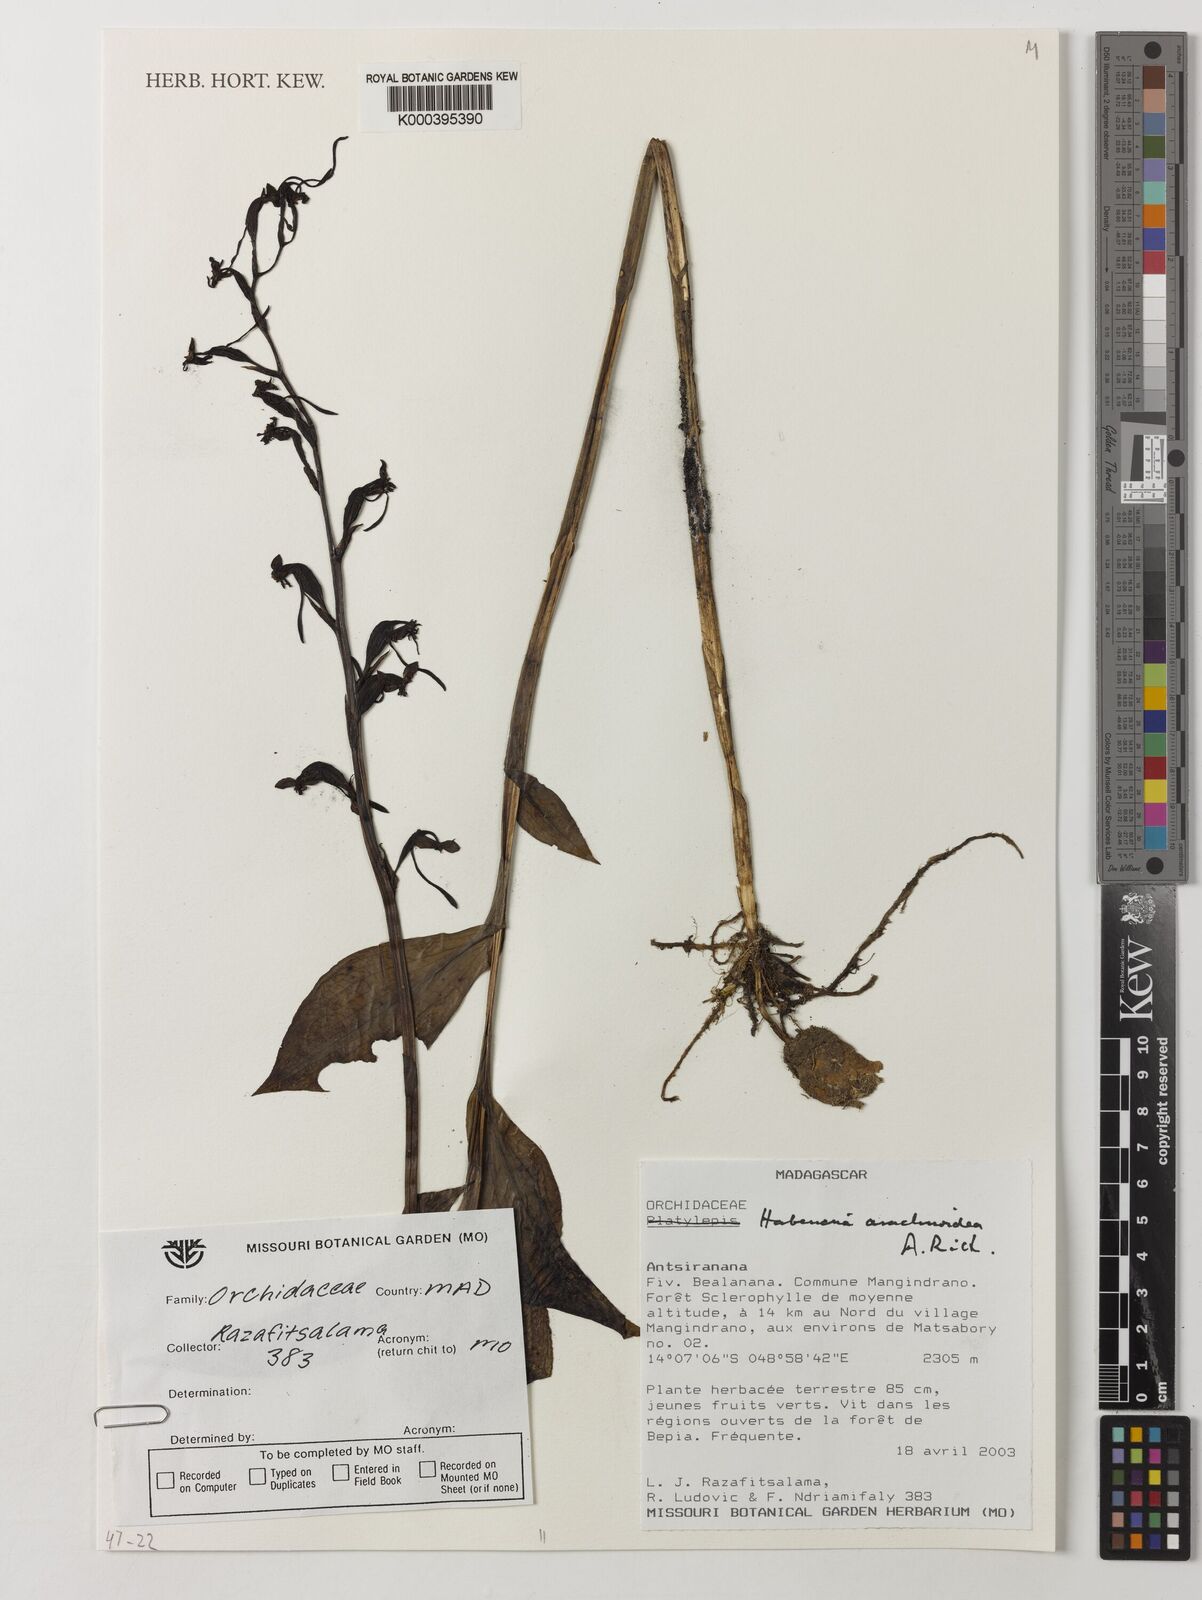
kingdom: Plantae
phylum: Tracheophyta
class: Liliopsida
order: Asparagales
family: Orchidaceae
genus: Habenaria
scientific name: Habenaria
